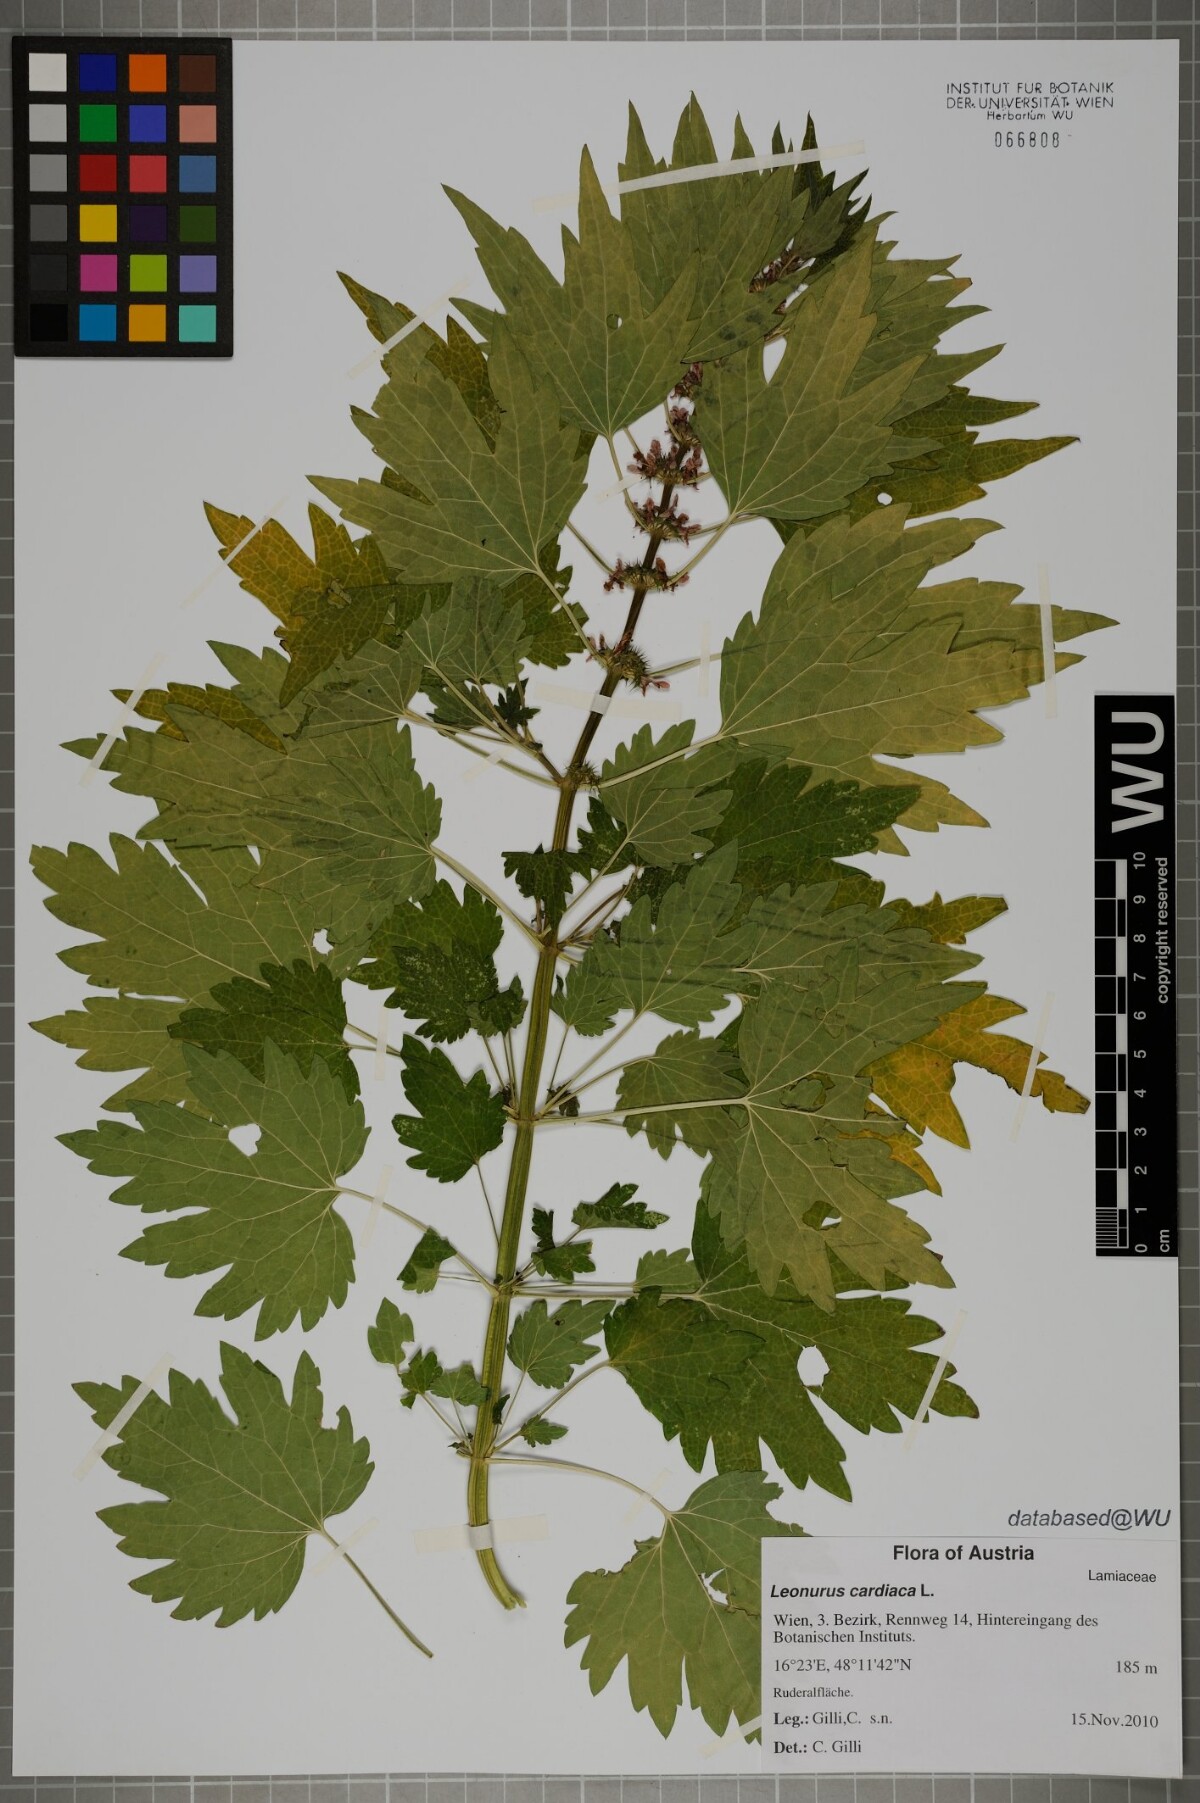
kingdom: Plantae
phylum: Tracheophyta
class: Magnoliopsida
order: Lamiales
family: Lamiaceae
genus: Leonurus
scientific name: Leonurus cardiaca
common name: Motherwort
